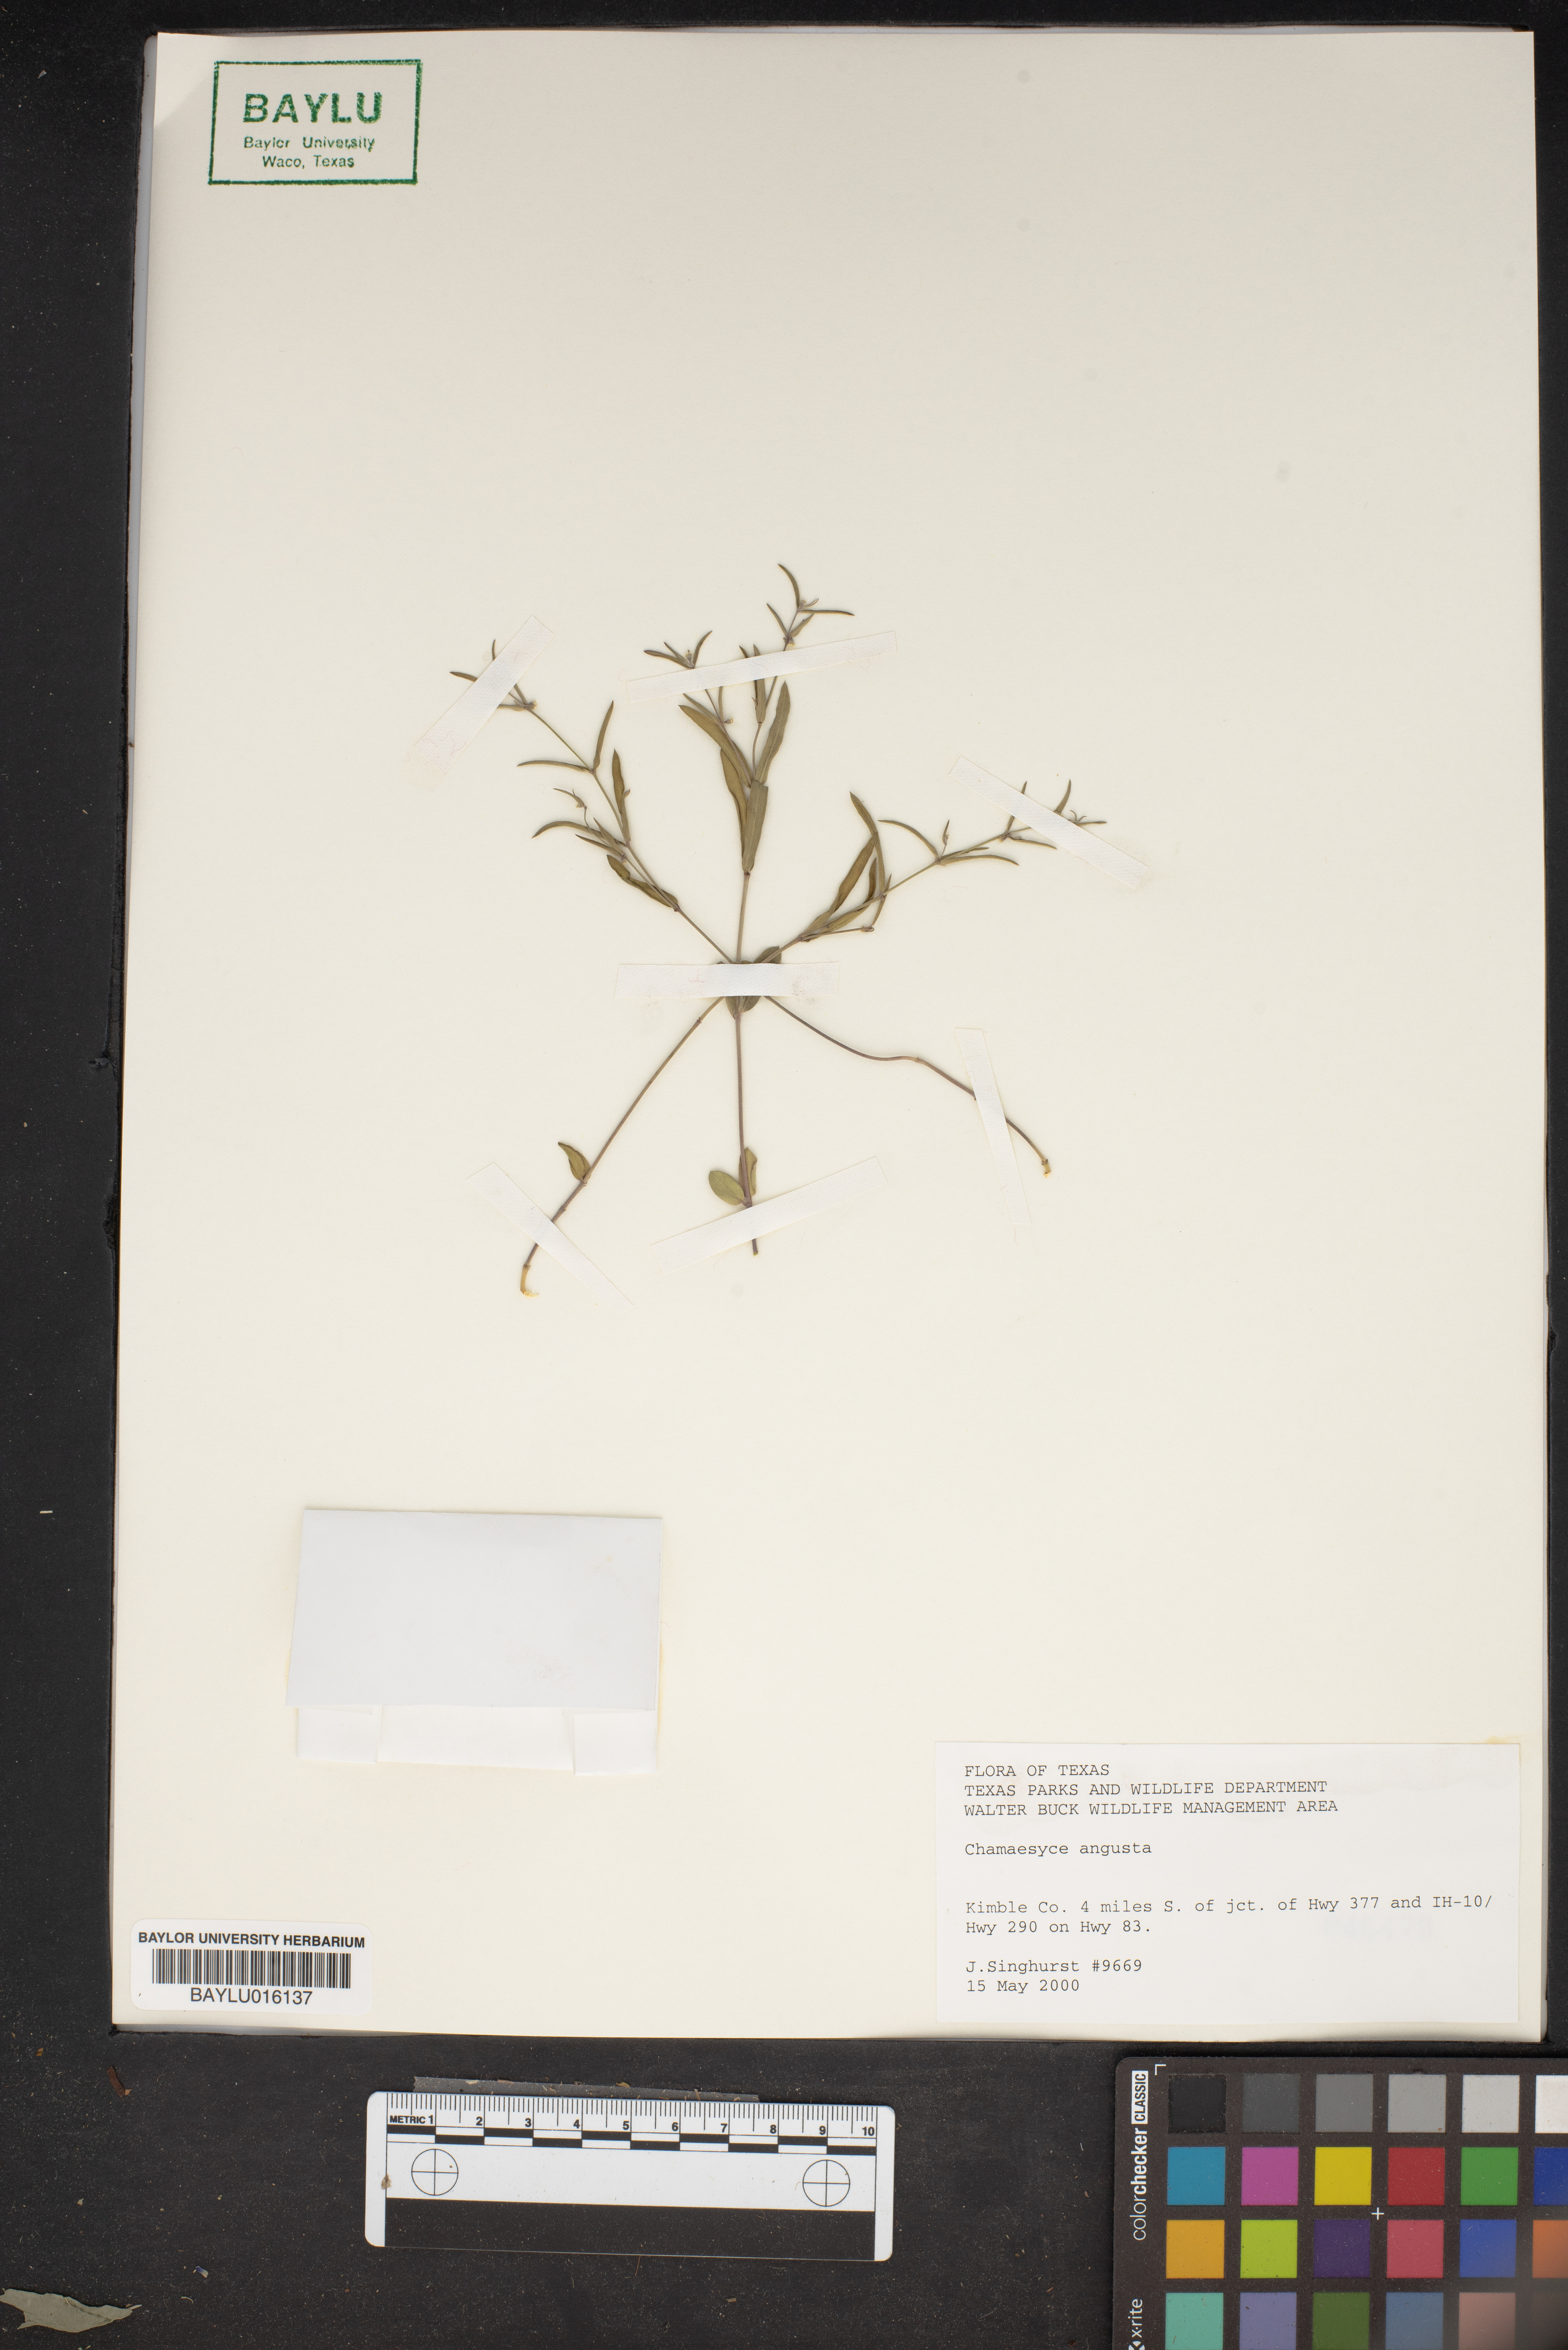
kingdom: Plantae
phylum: Tracheophyta
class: Magnoliopsida
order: Malpighiales
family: Euphorbiaceae
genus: Euphorbia
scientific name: Euphorbia angusta
